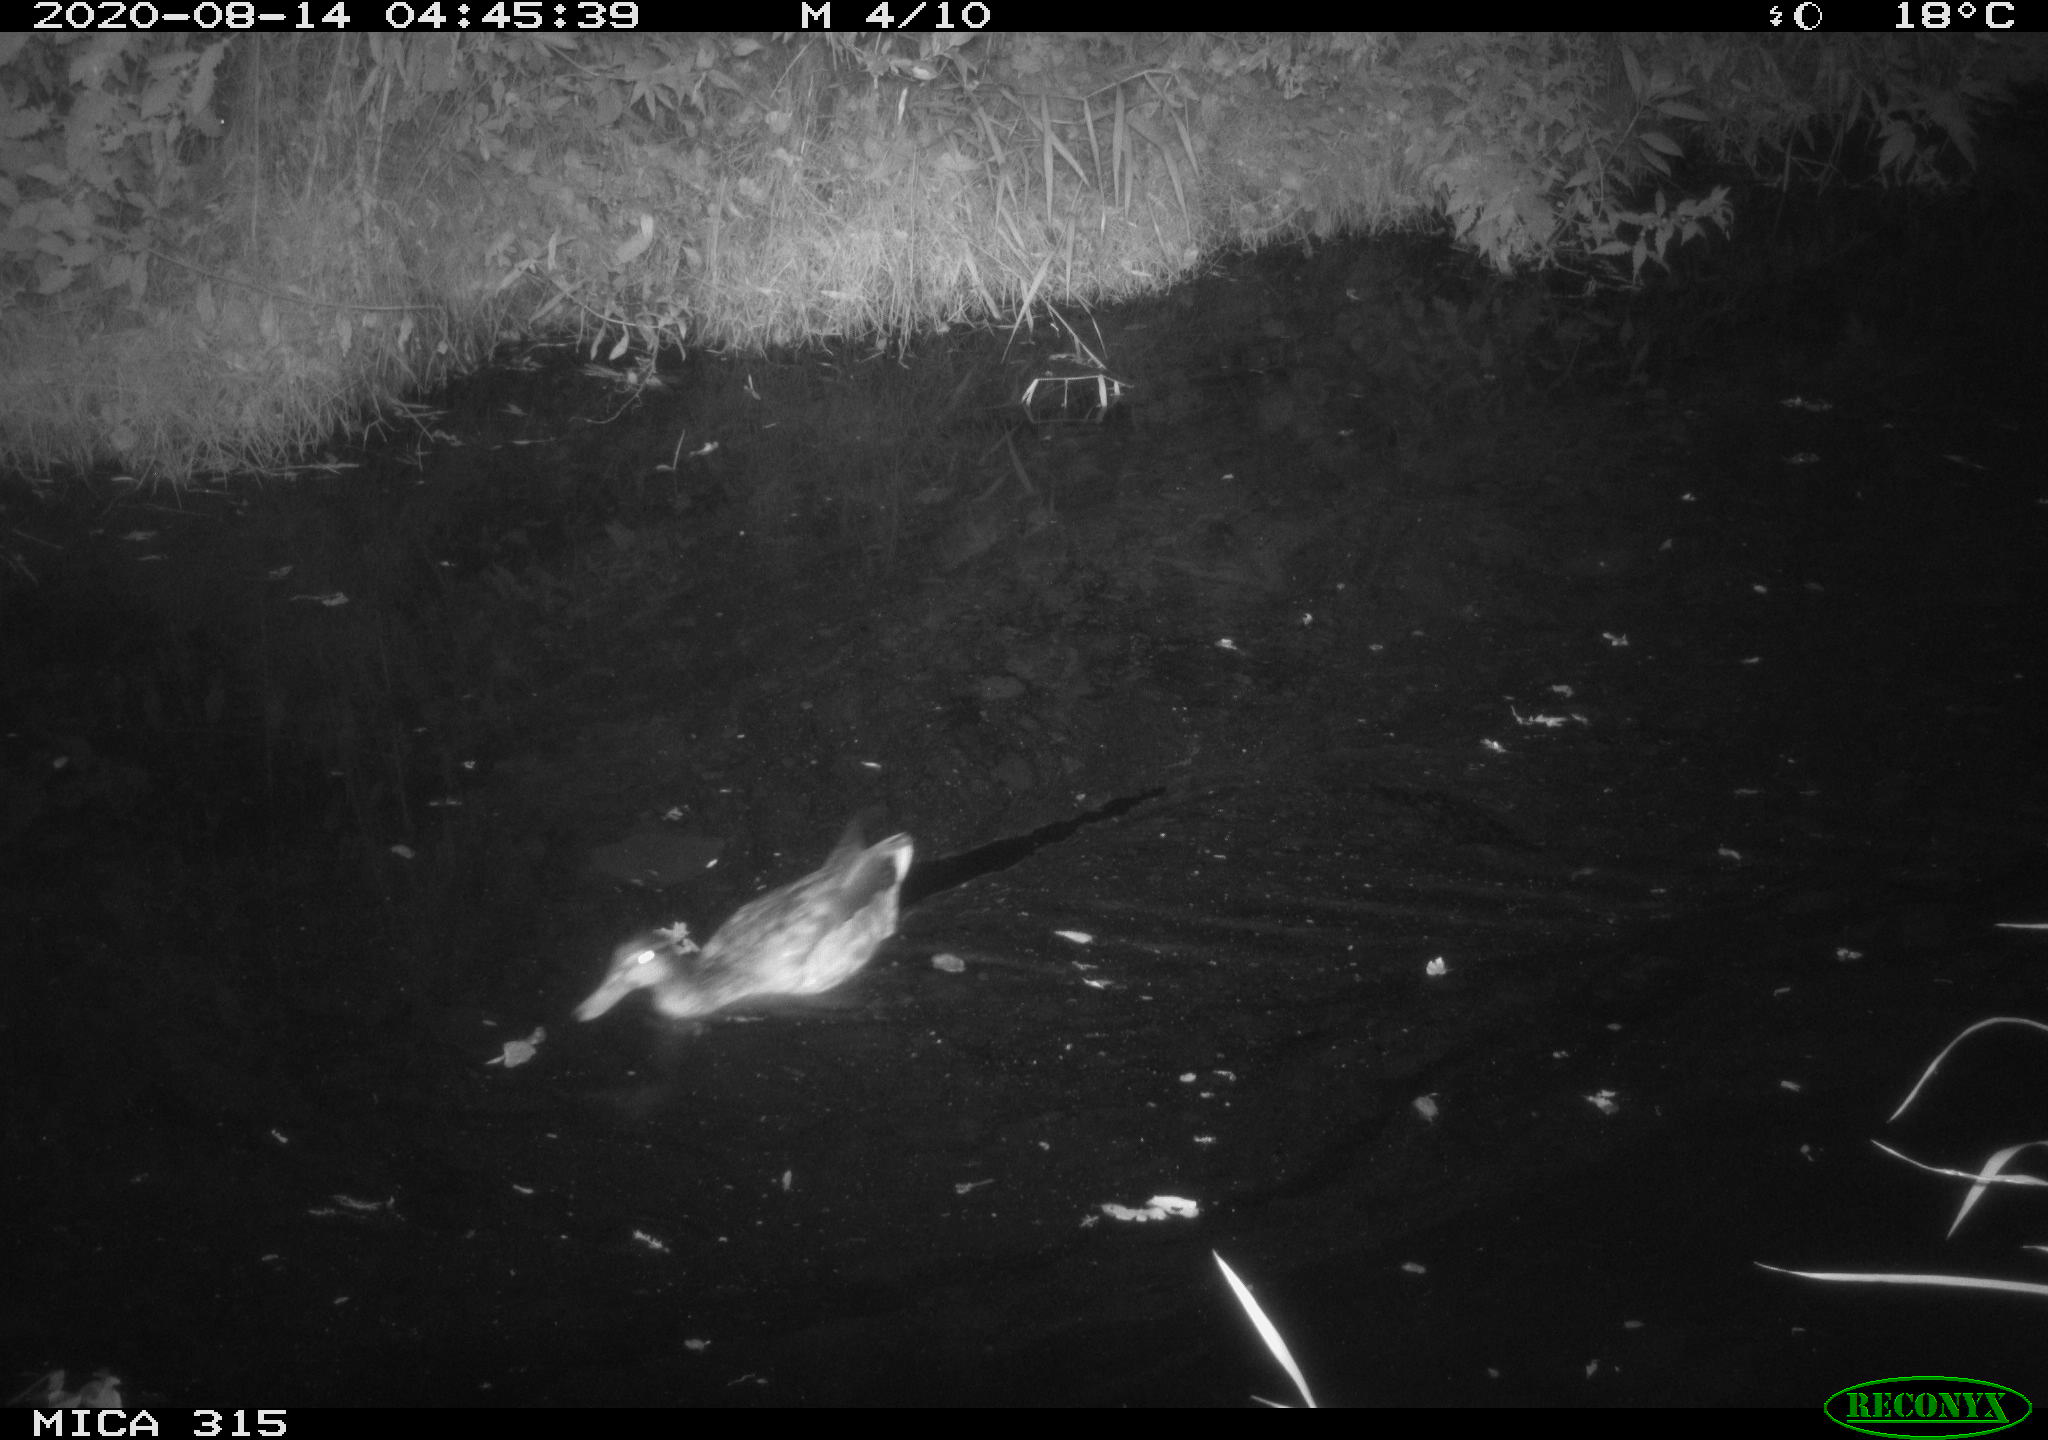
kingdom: Animalia
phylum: Chordata
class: Aves
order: Anseriformes
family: Anatidae
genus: Anas
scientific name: Anas platyrhynchos
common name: Mallard
